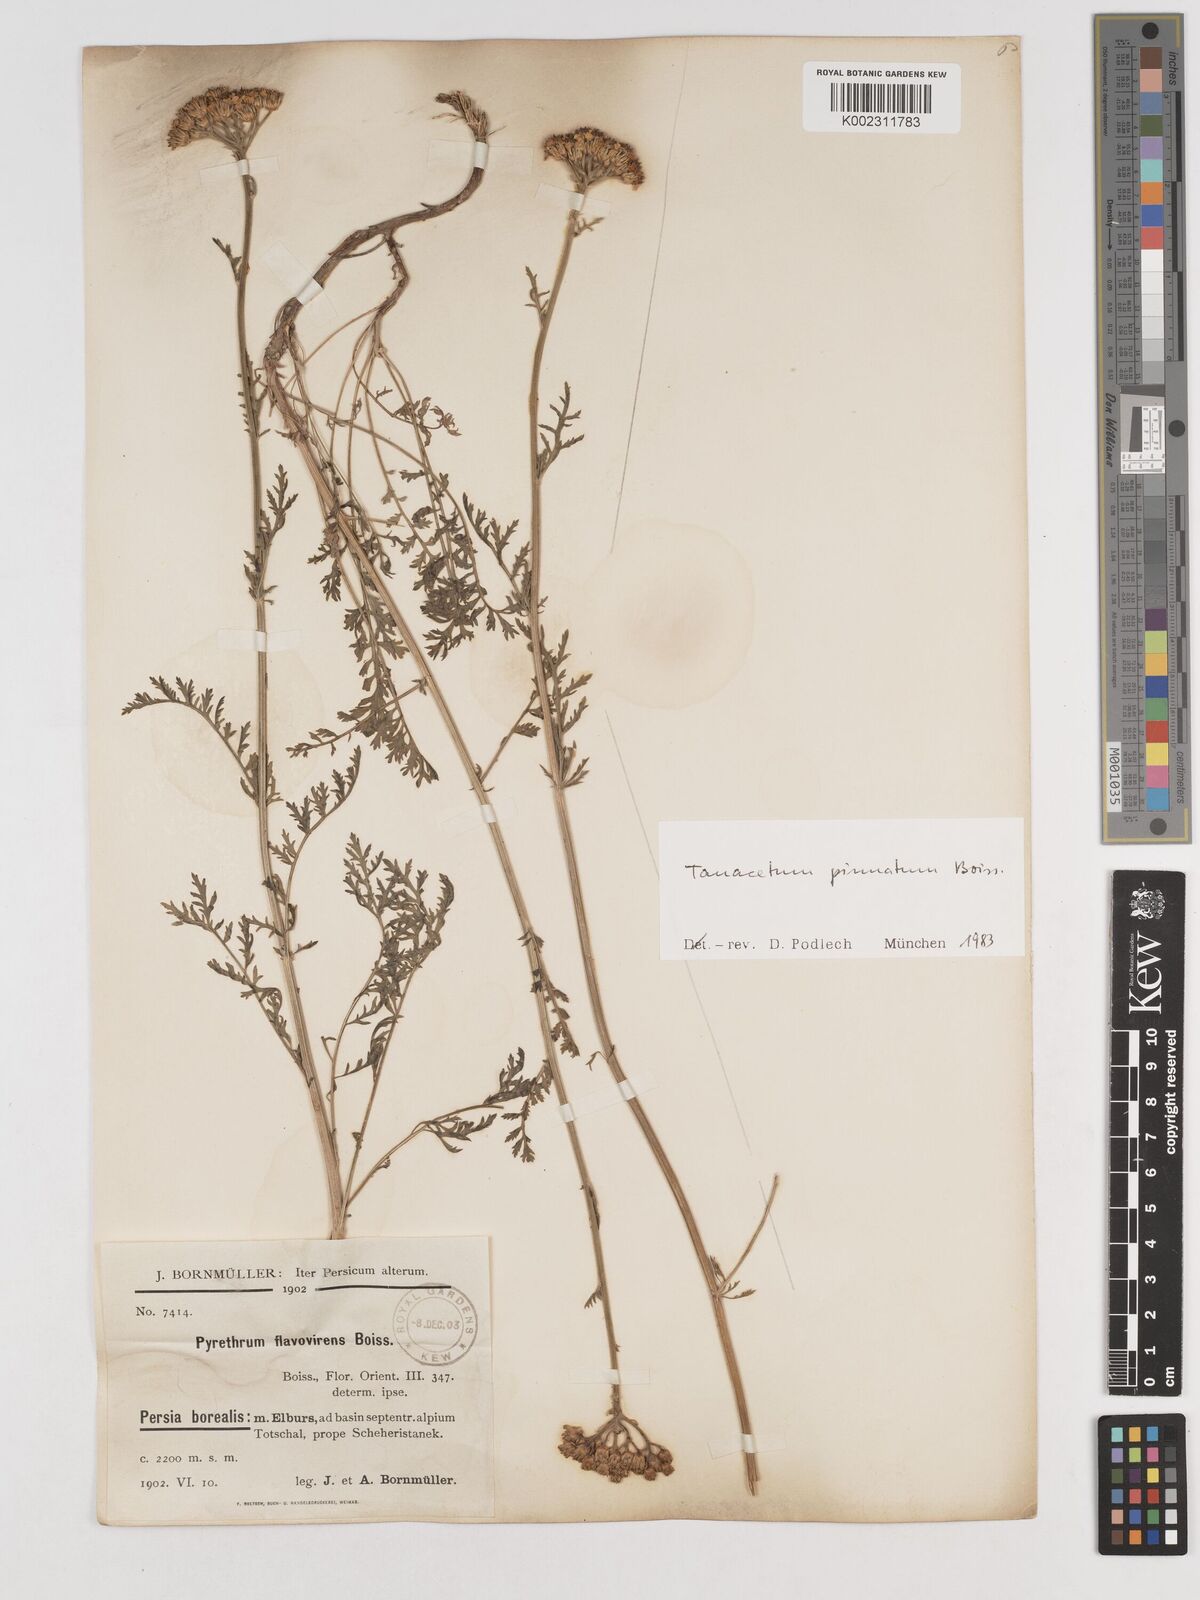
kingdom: Plantae
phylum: Tracheophyta
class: Magnoliopsida
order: Asterales
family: Asteraceae
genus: Tanacetum
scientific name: Tanacetum pinnatum
